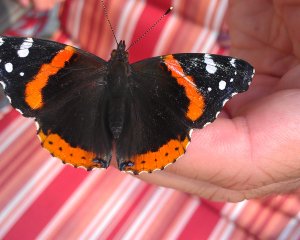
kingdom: Animalia
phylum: Arthropoda
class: Insecta
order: Lepidoptera
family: Nymphalidae
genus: Vanessa
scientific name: Vanessa atalanta
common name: Red Admiral
